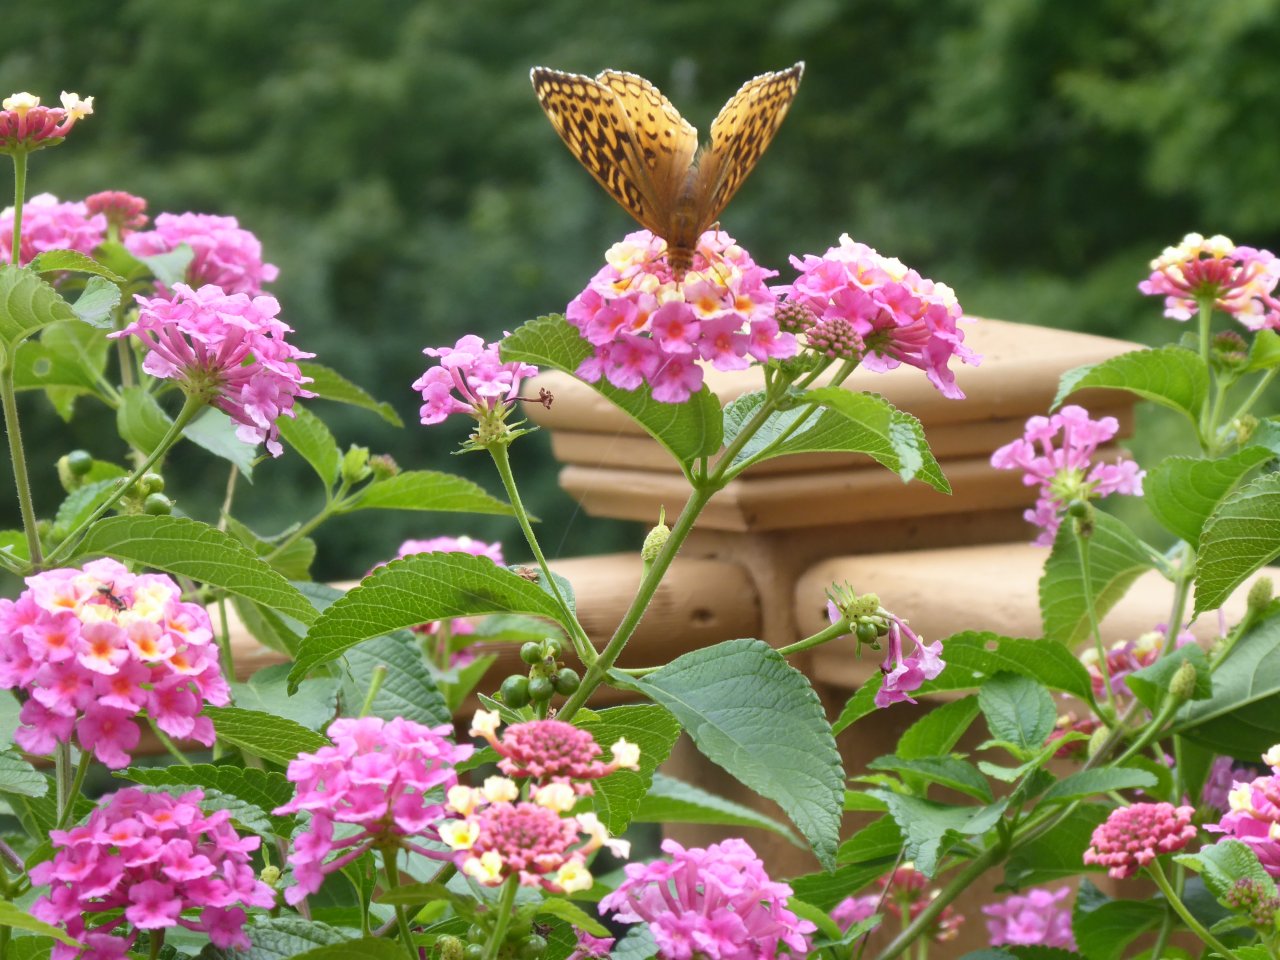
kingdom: Animalia
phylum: Arthropoda
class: Insecta
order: Lepidoptera
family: Nymphalidae
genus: Speyeria
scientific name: Speyeria cybele
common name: Great Spangled Fritillary
